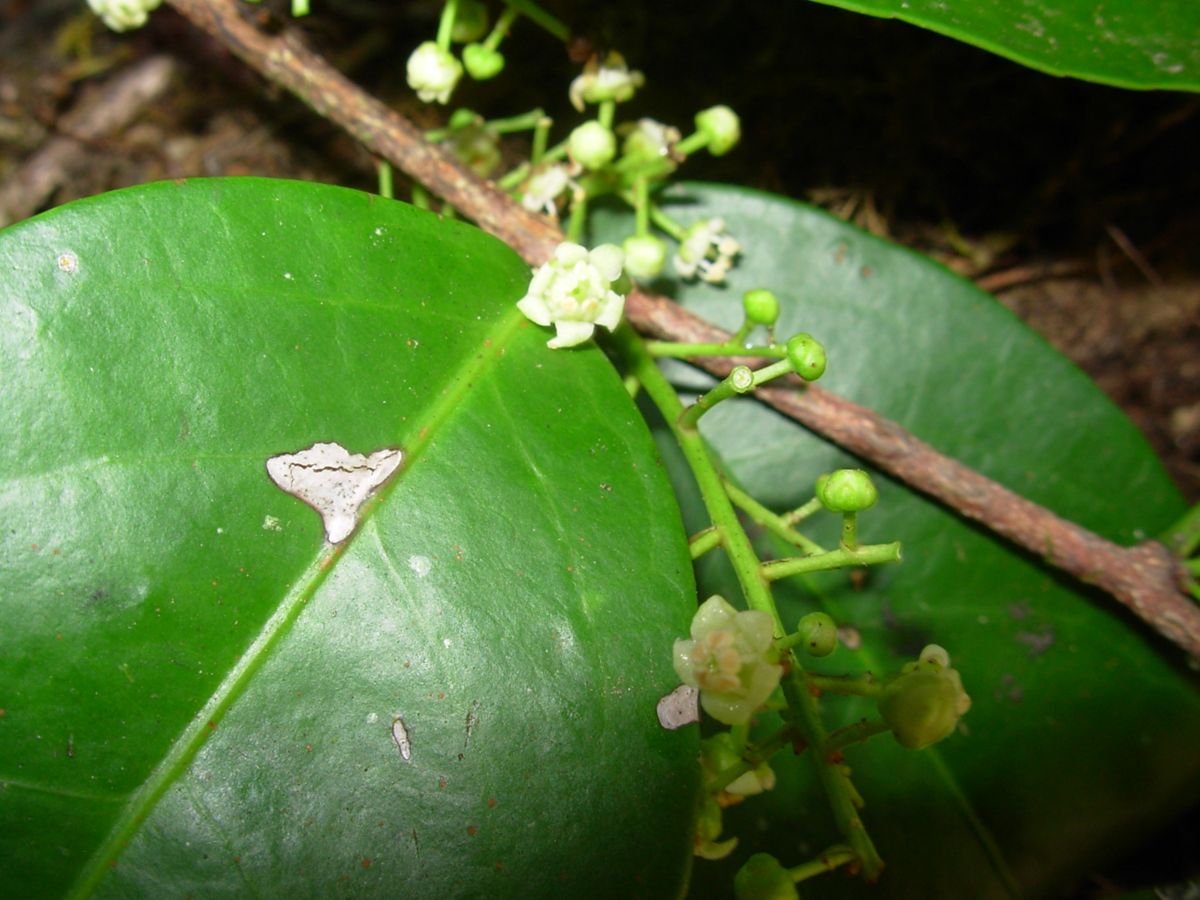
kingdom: Plantae
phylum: Tracheophyta
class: Magnoliopsida
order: Celastrales
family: Celastraceae
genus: Celastrus
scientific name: Celastrus vulcanicola
